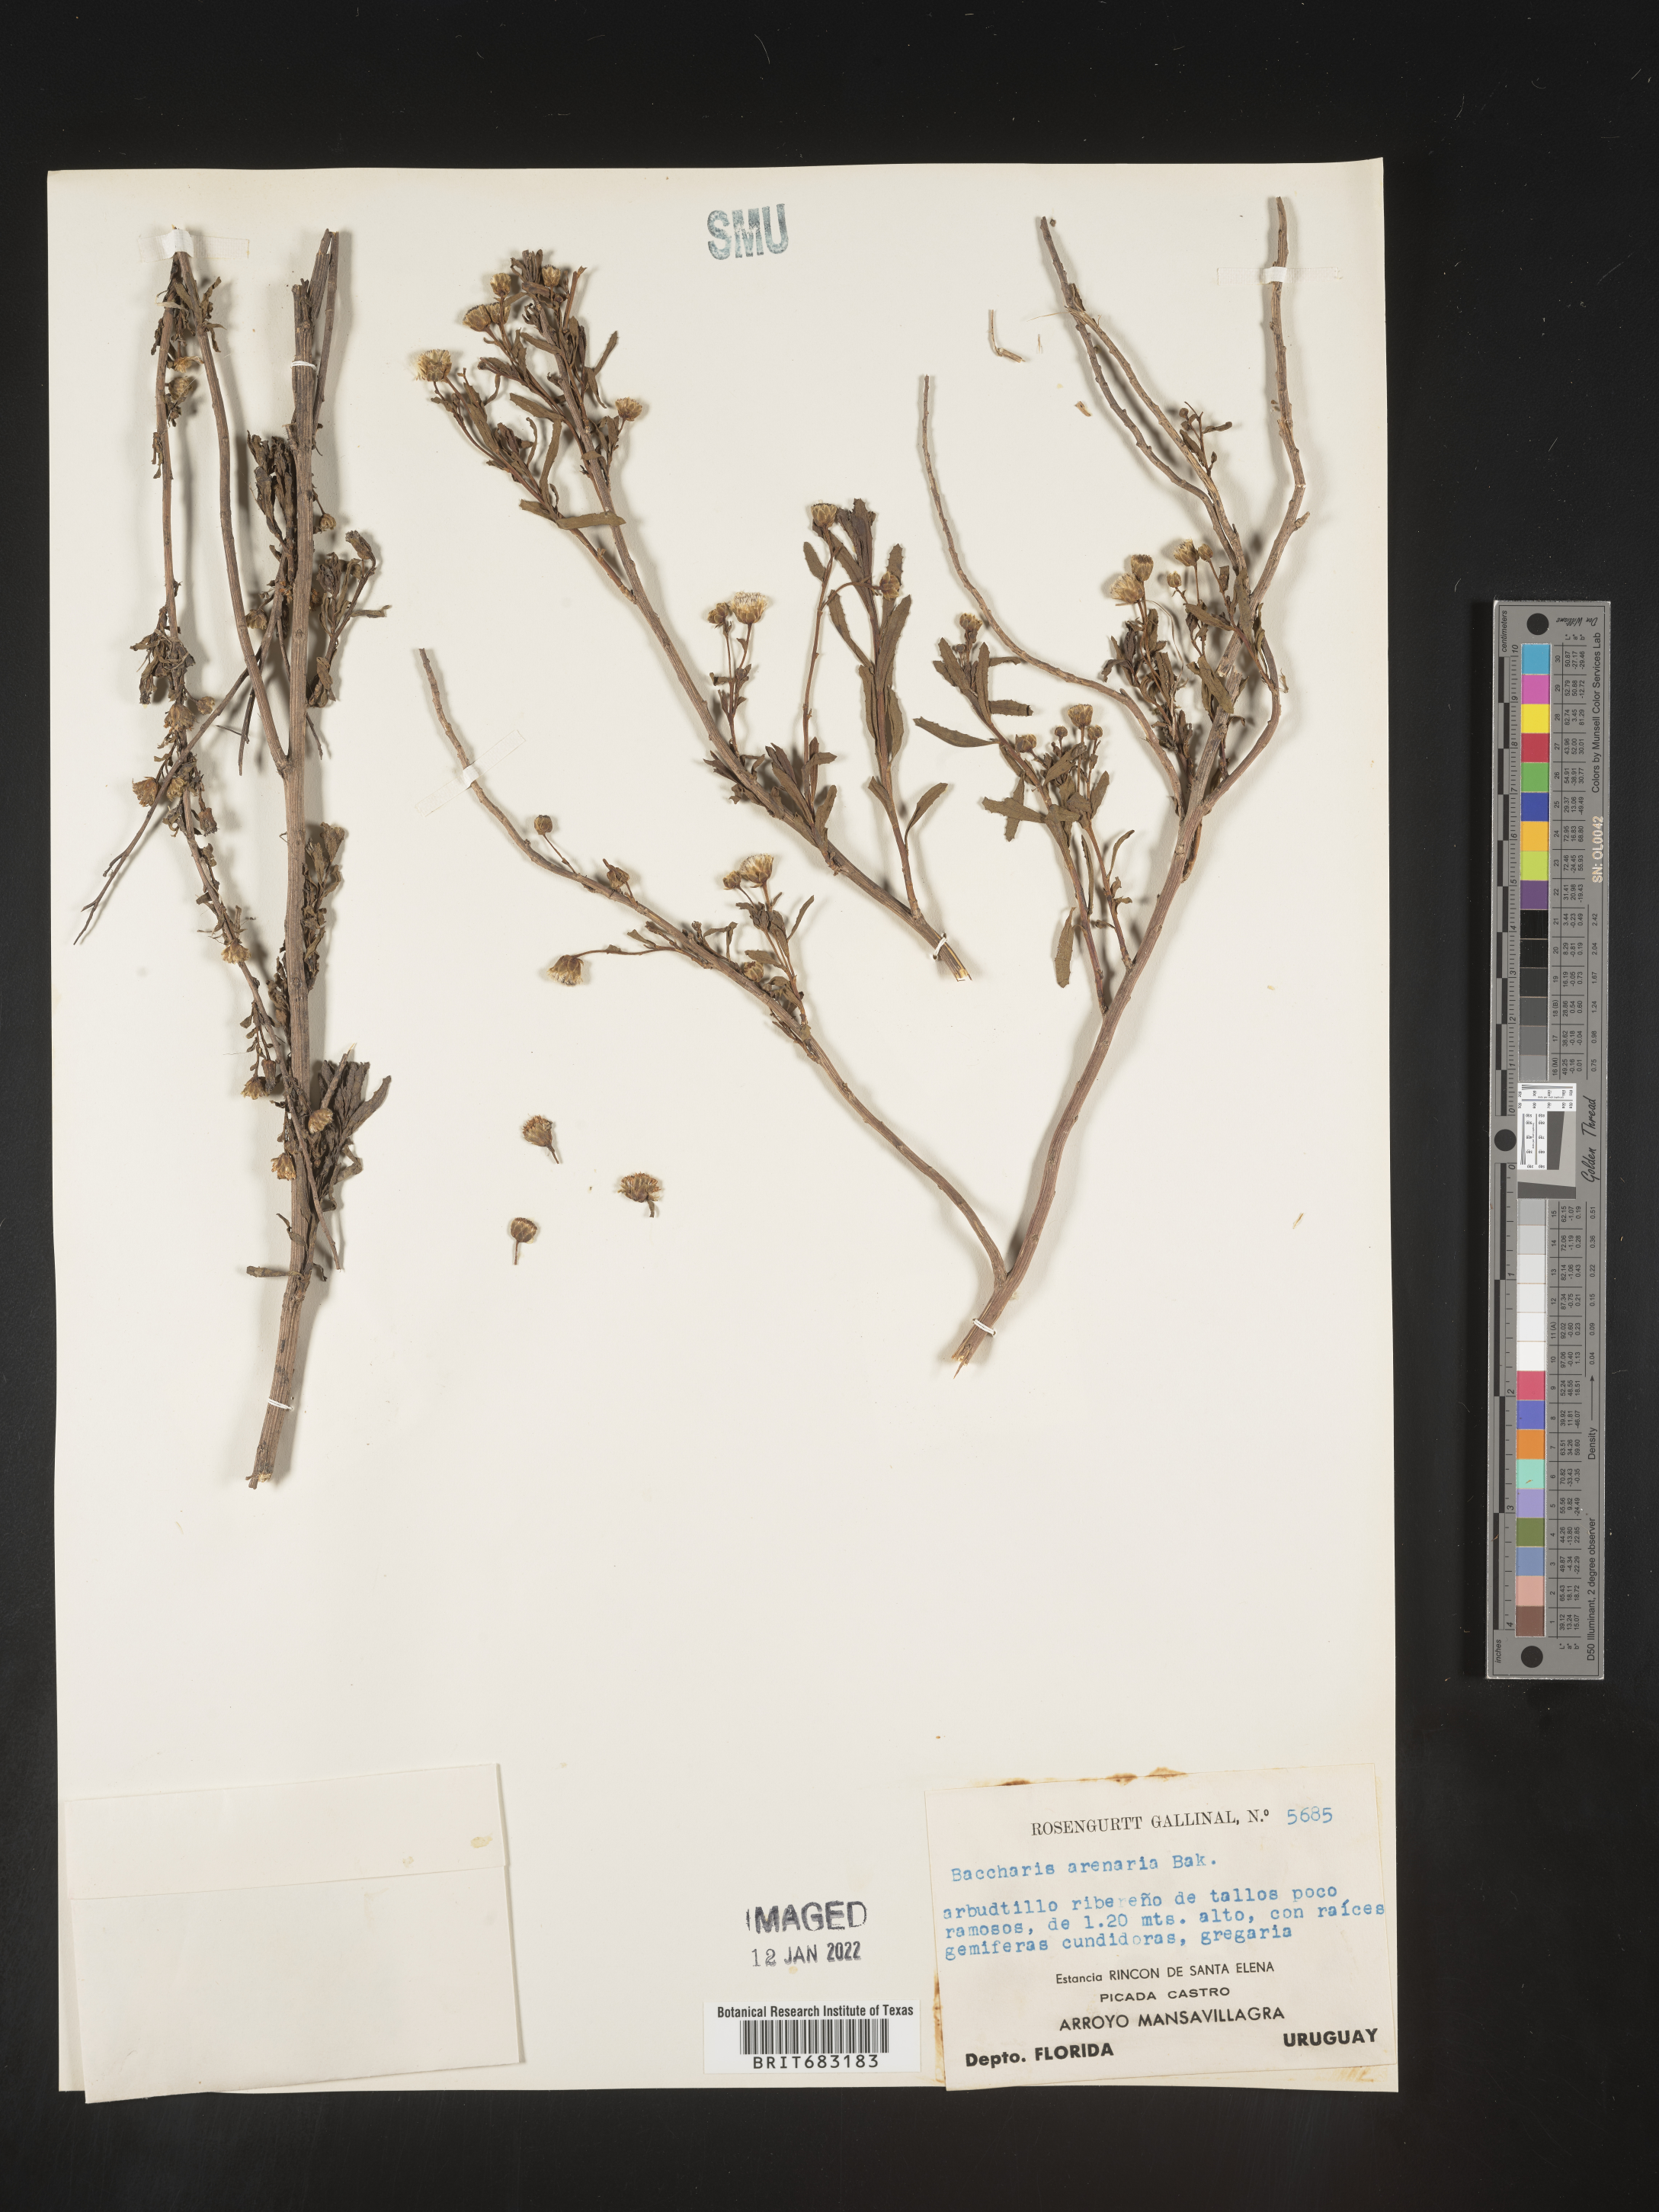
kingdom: Plantae
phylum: Tracheophyta
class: Magnoliopsida
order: Asterales
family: Asteraceae
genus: Baccharis
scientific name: Baccharis
